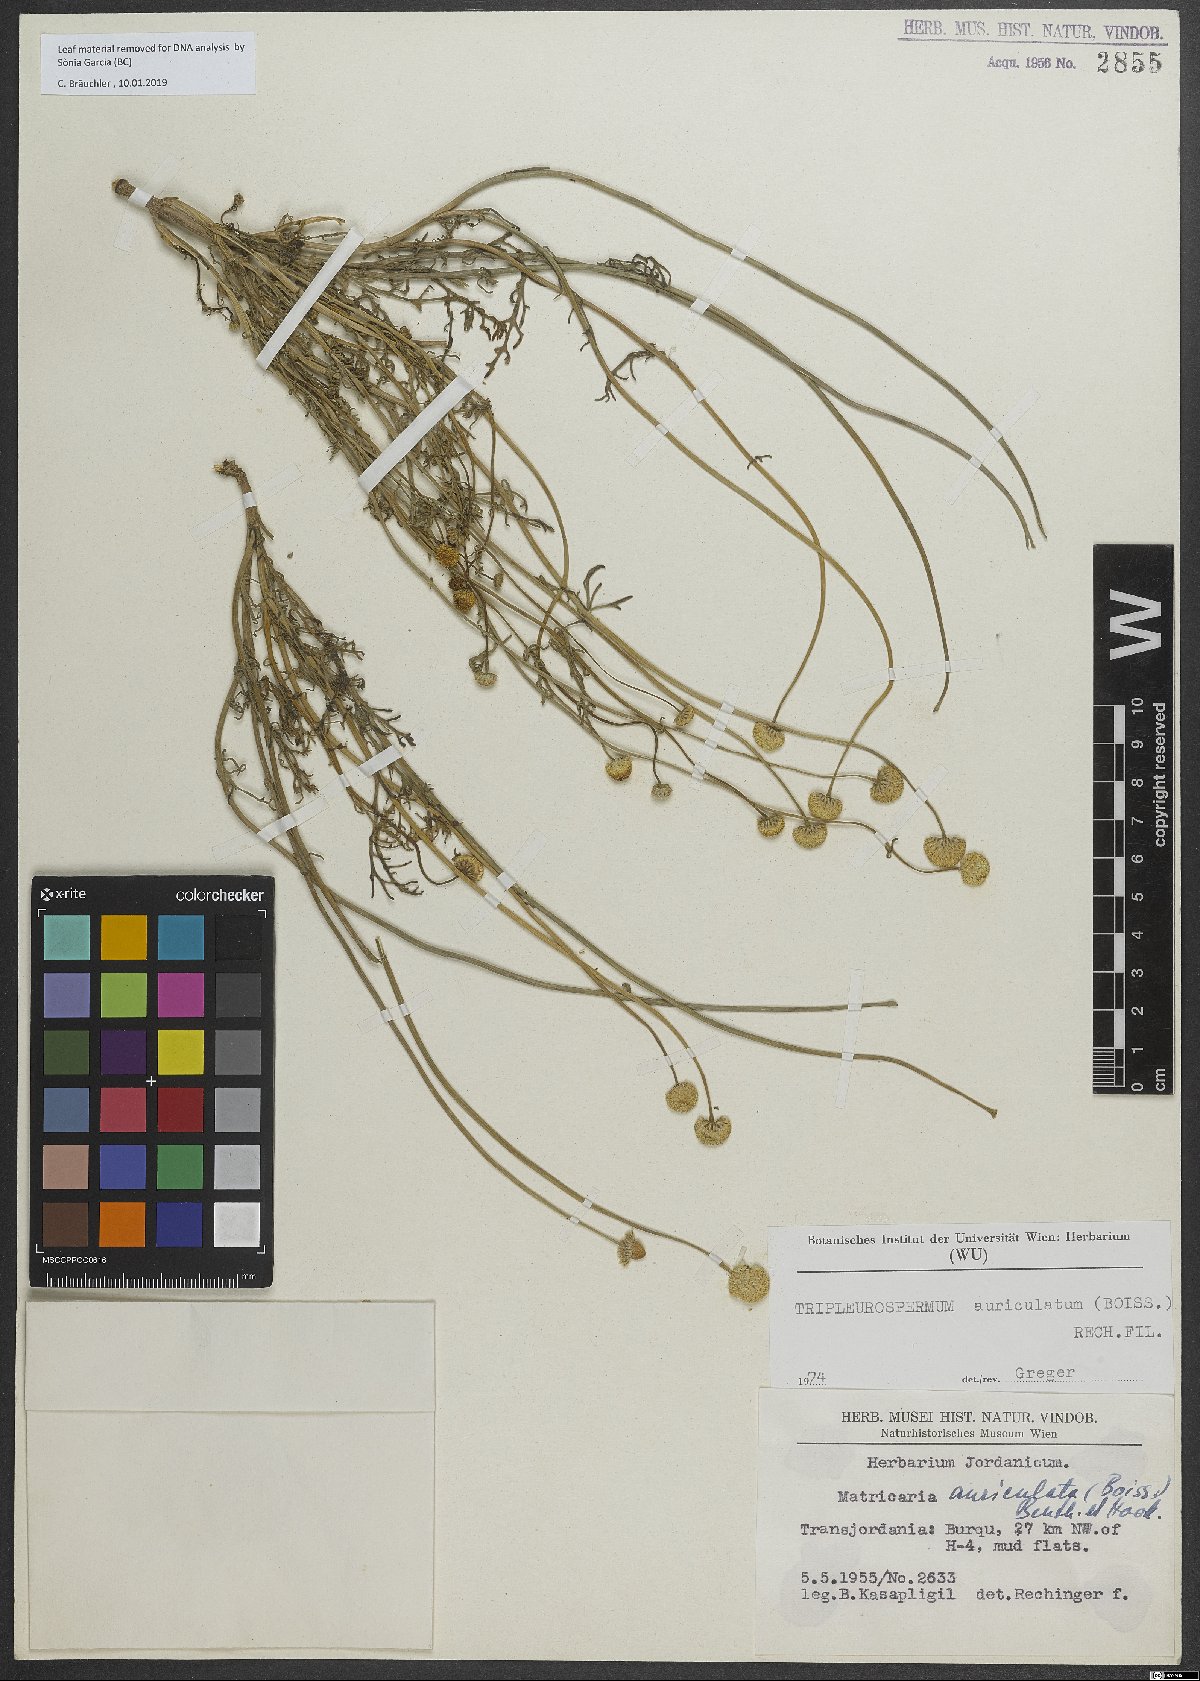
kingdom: Plantae
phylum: Tracheophyta
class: Magnoliopsida
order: Asterales
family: Asteraceae
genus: Tripleurospermum
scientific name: Tripleurospermum auriculatum
